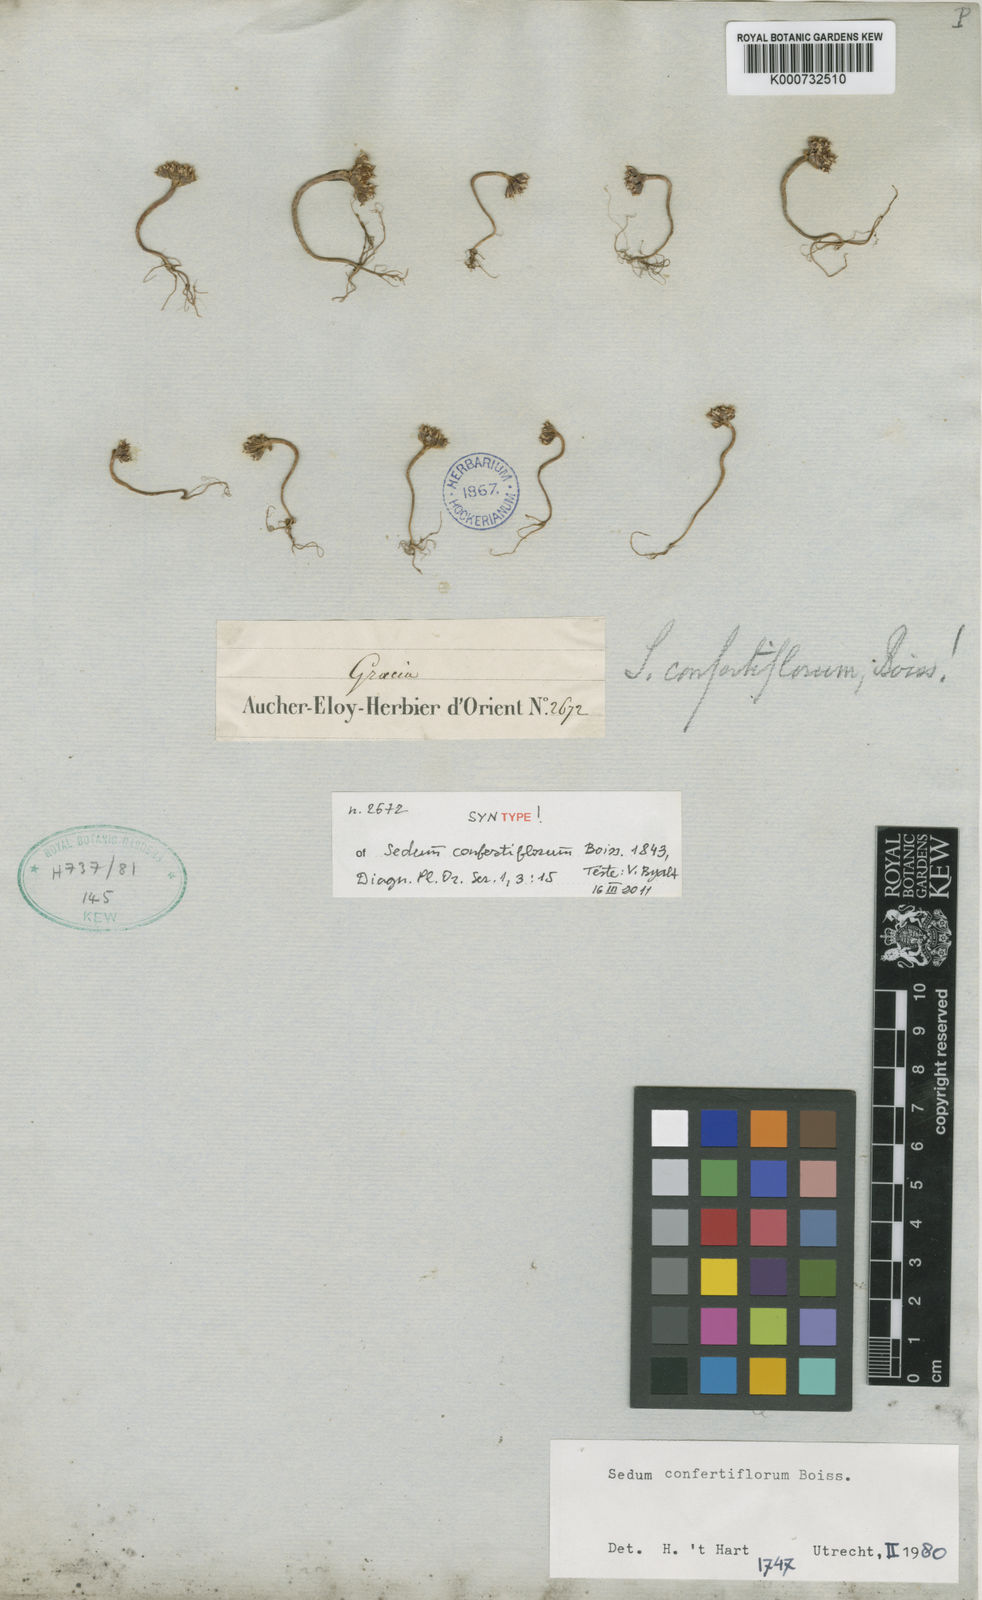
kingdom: Plantae
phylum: Tracheophyta
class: Magnoliopsida
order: Saxifragales
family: Crassulaceae
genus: Sedum
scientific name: Sedum confertiflorum
